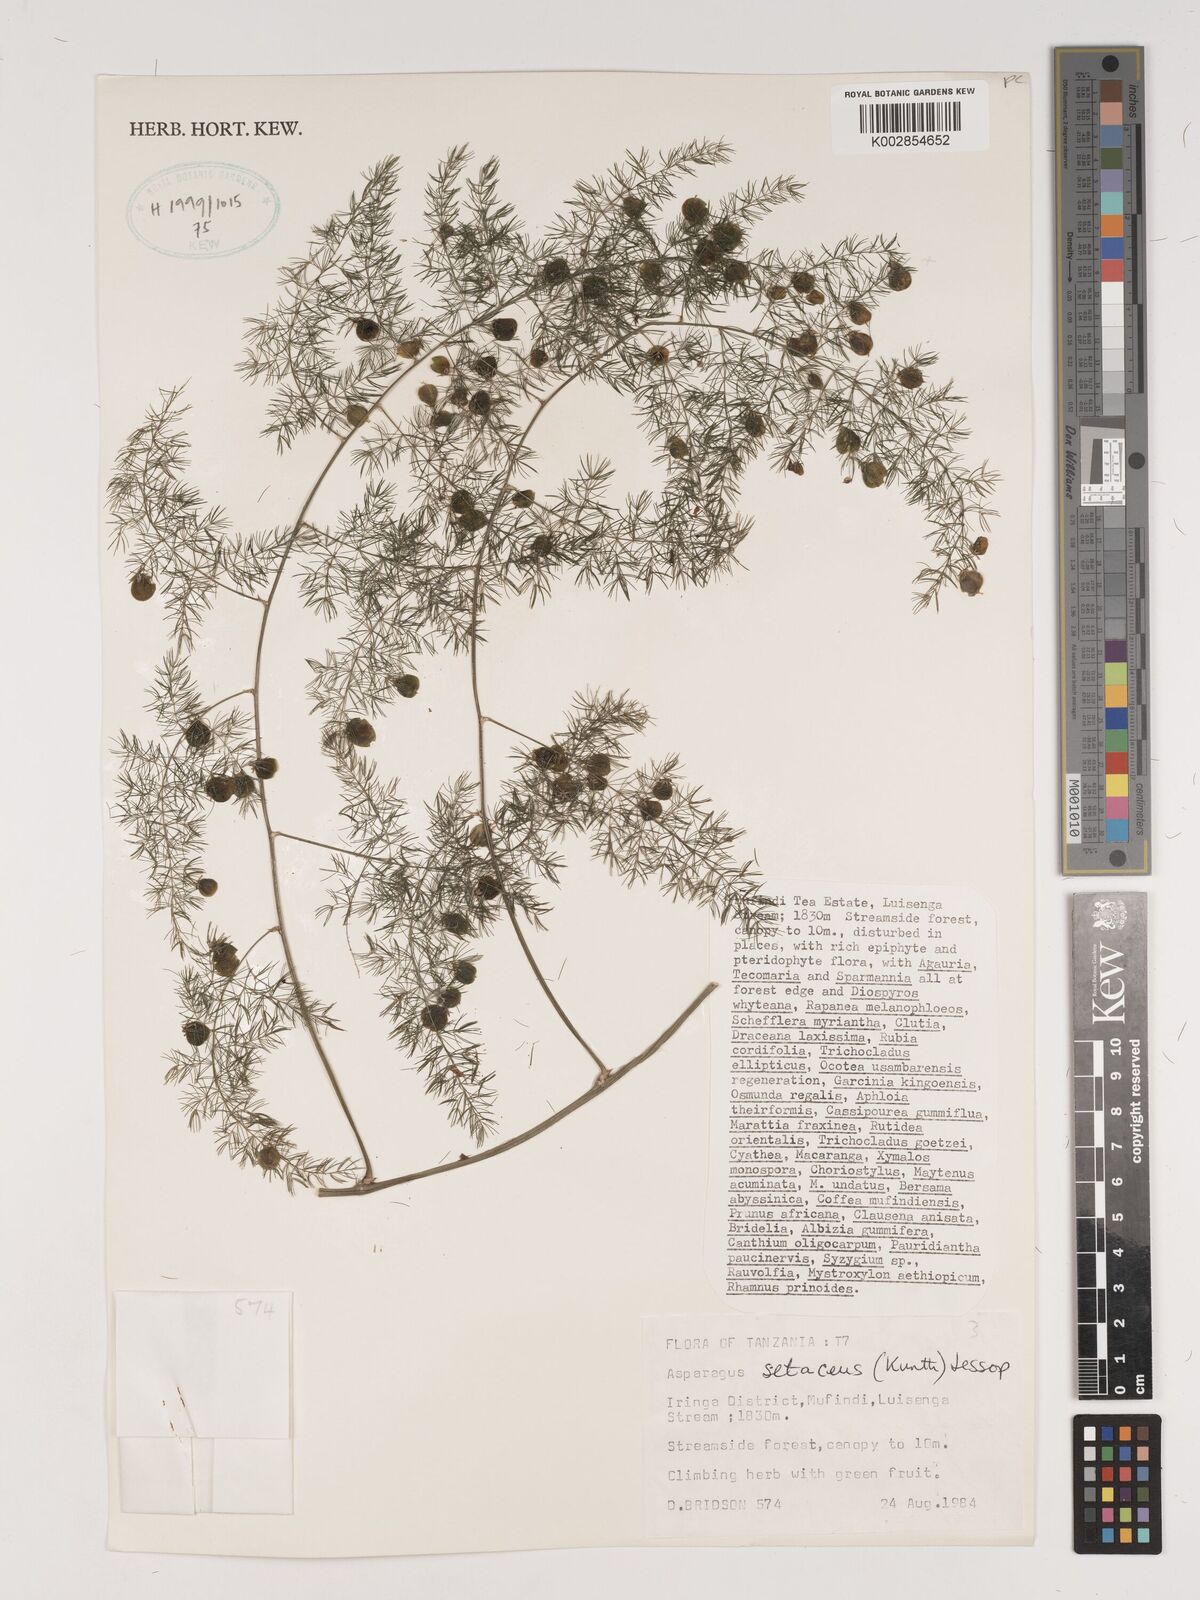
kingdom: Plantae
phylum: Tracheophyta
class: Liliopsida
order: Asparagales
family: Asparagaceae
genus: Asparagus
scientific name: Asparagus setaceus
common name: Common asparagus fern
